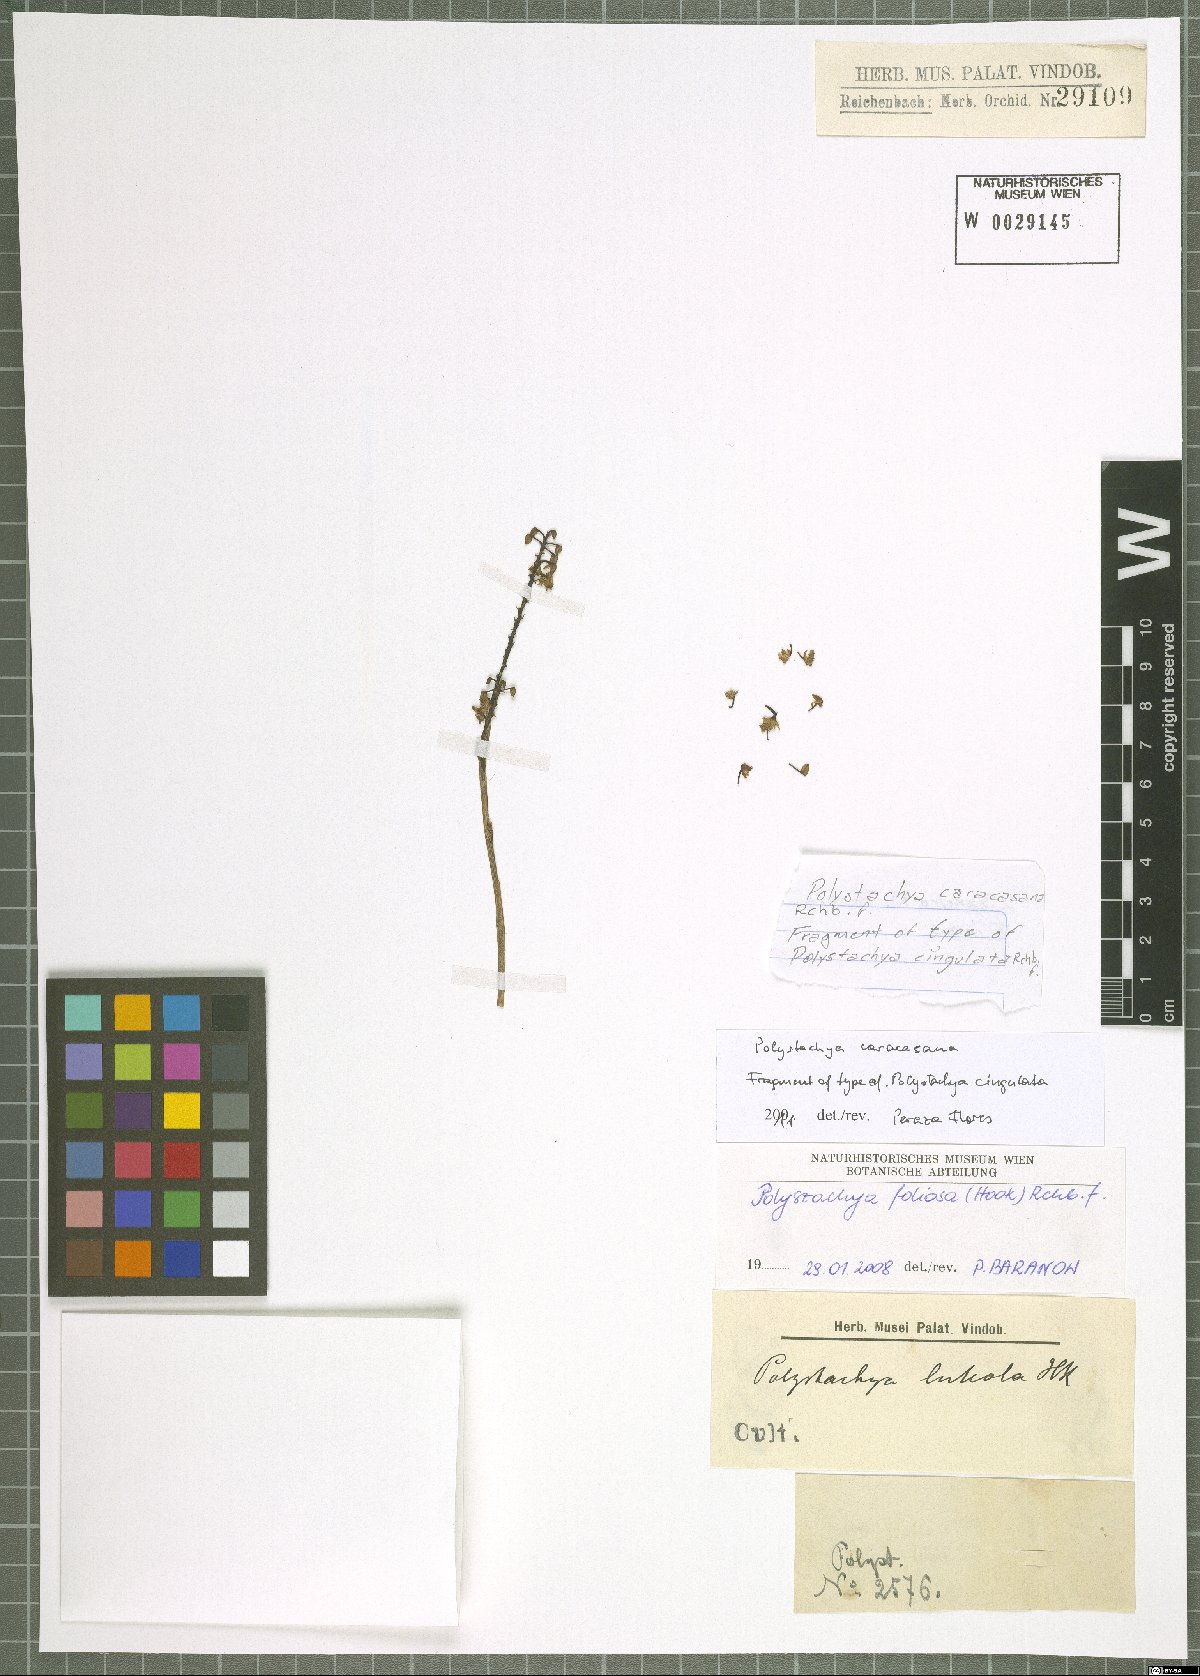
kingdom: Plantae
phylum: Tracheophyta
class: Liliopsida
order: Asparagales
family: Orchidaceae
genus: Polystachya
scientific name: Polystachya foliosa
